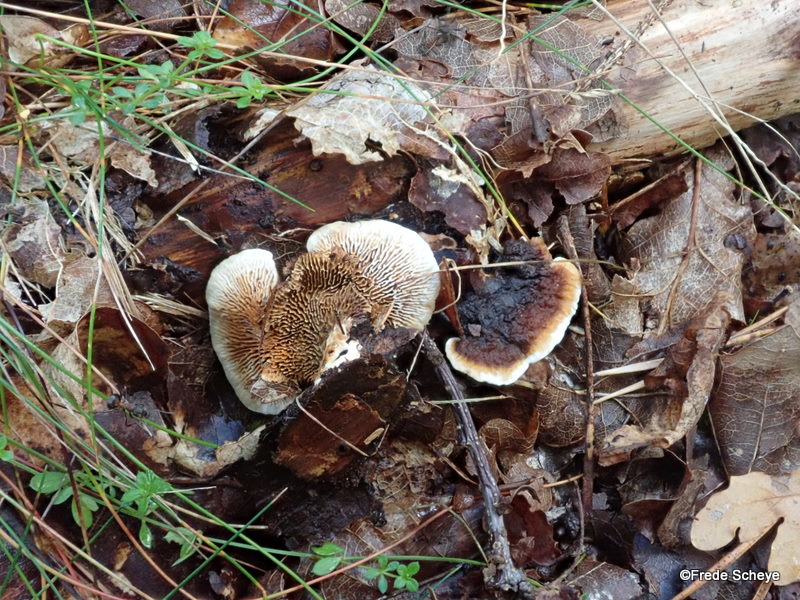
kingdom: Fungi
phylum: Basidiomycota
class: Agaricomycetes
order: Gloeophyllales
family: Gloeophyllaceae
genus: Gloeophyllum
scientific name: Gloeophyllum sepiarium
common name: fyrre-korkhat
